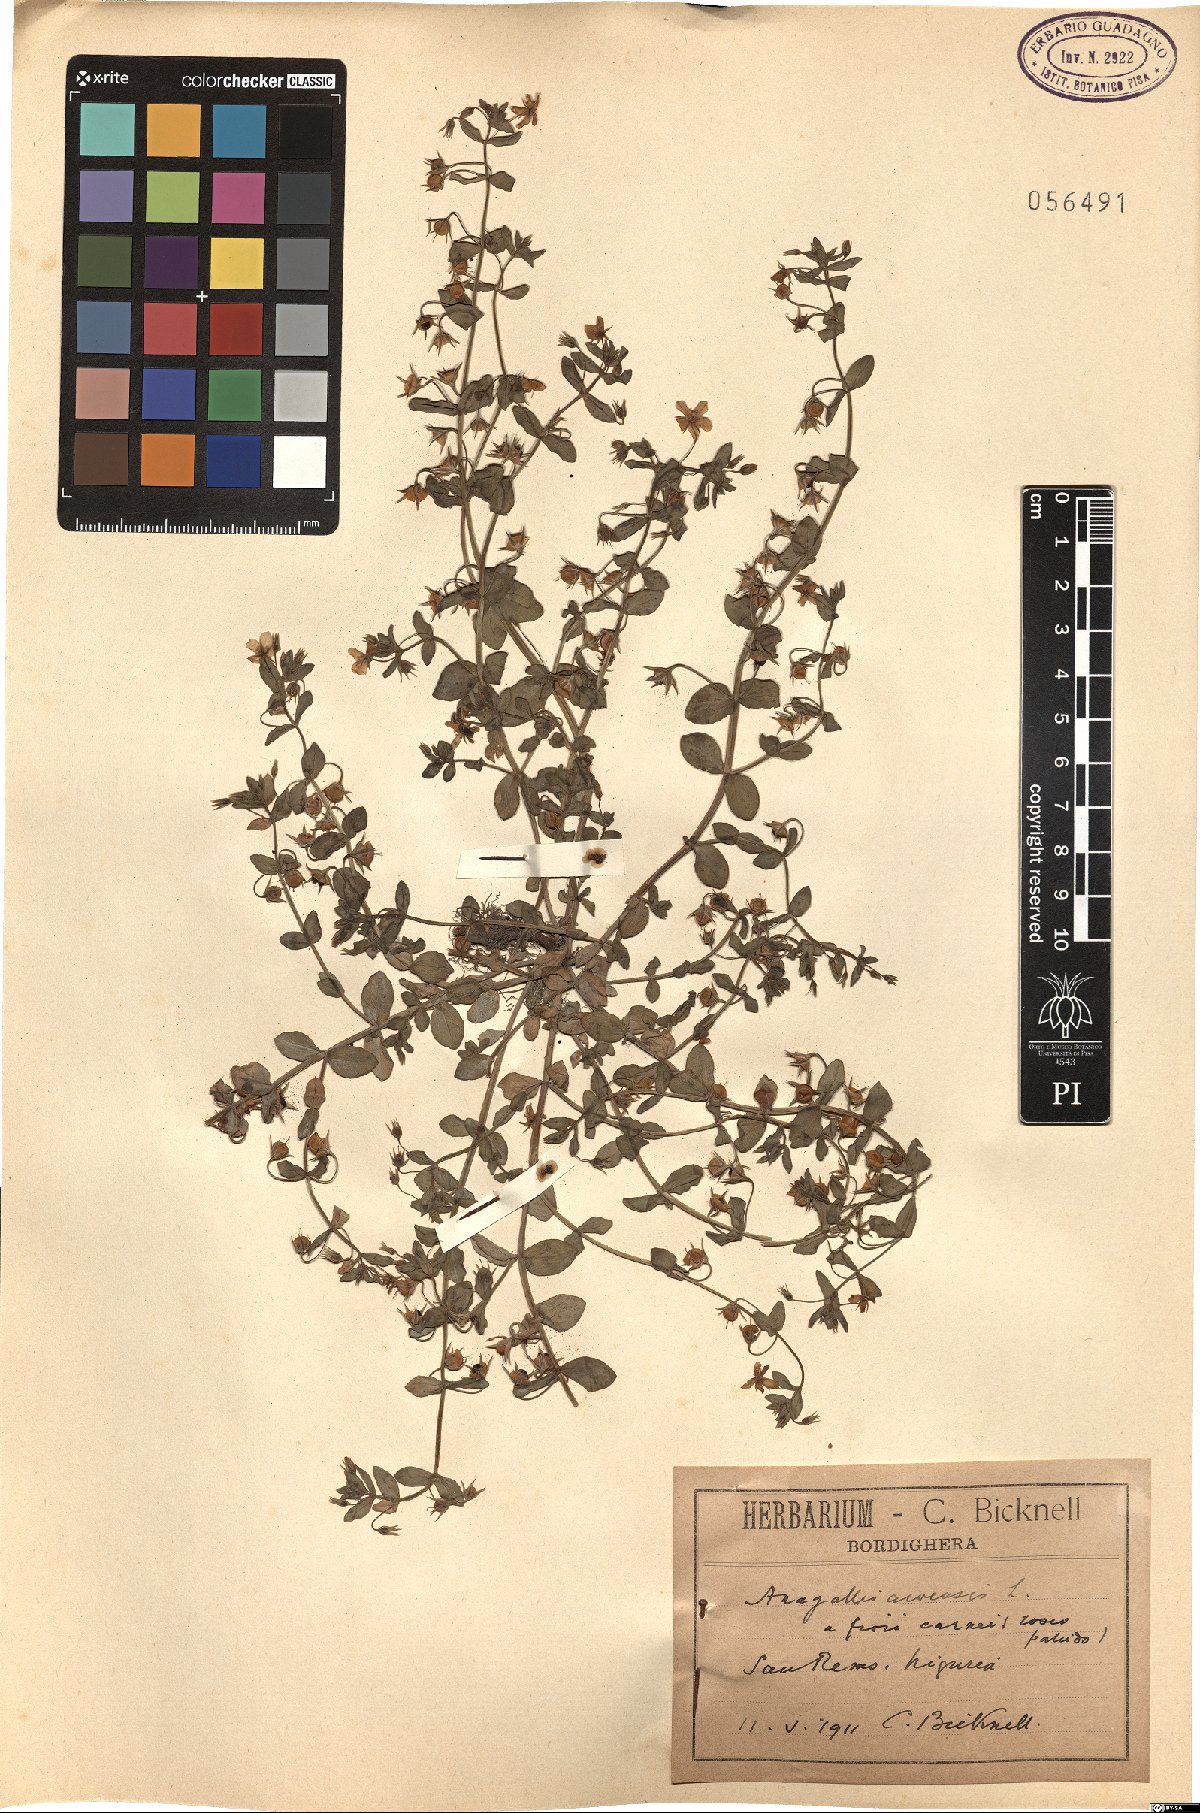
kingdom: Plantae
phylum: Tracheophyta
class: Magnoliopsida
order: Ericales
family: Primulaceae
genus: Lysimachia
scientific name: Lysimachia arvensis
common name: Scarlet pimpernel
